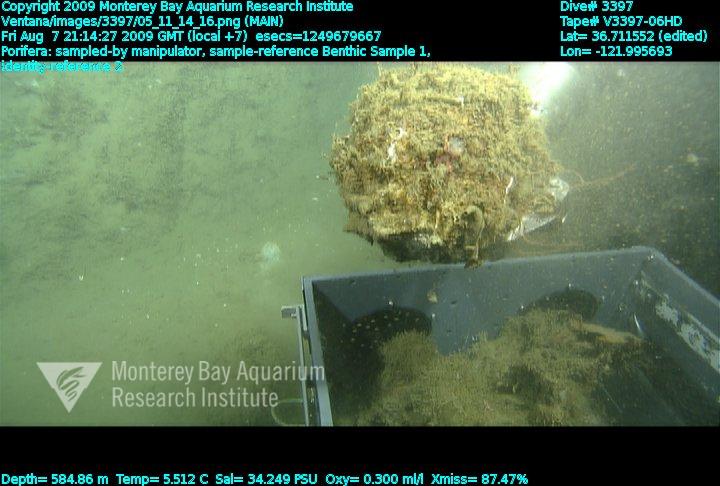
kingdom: Animalia
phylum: Porifera
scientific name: Porifera
